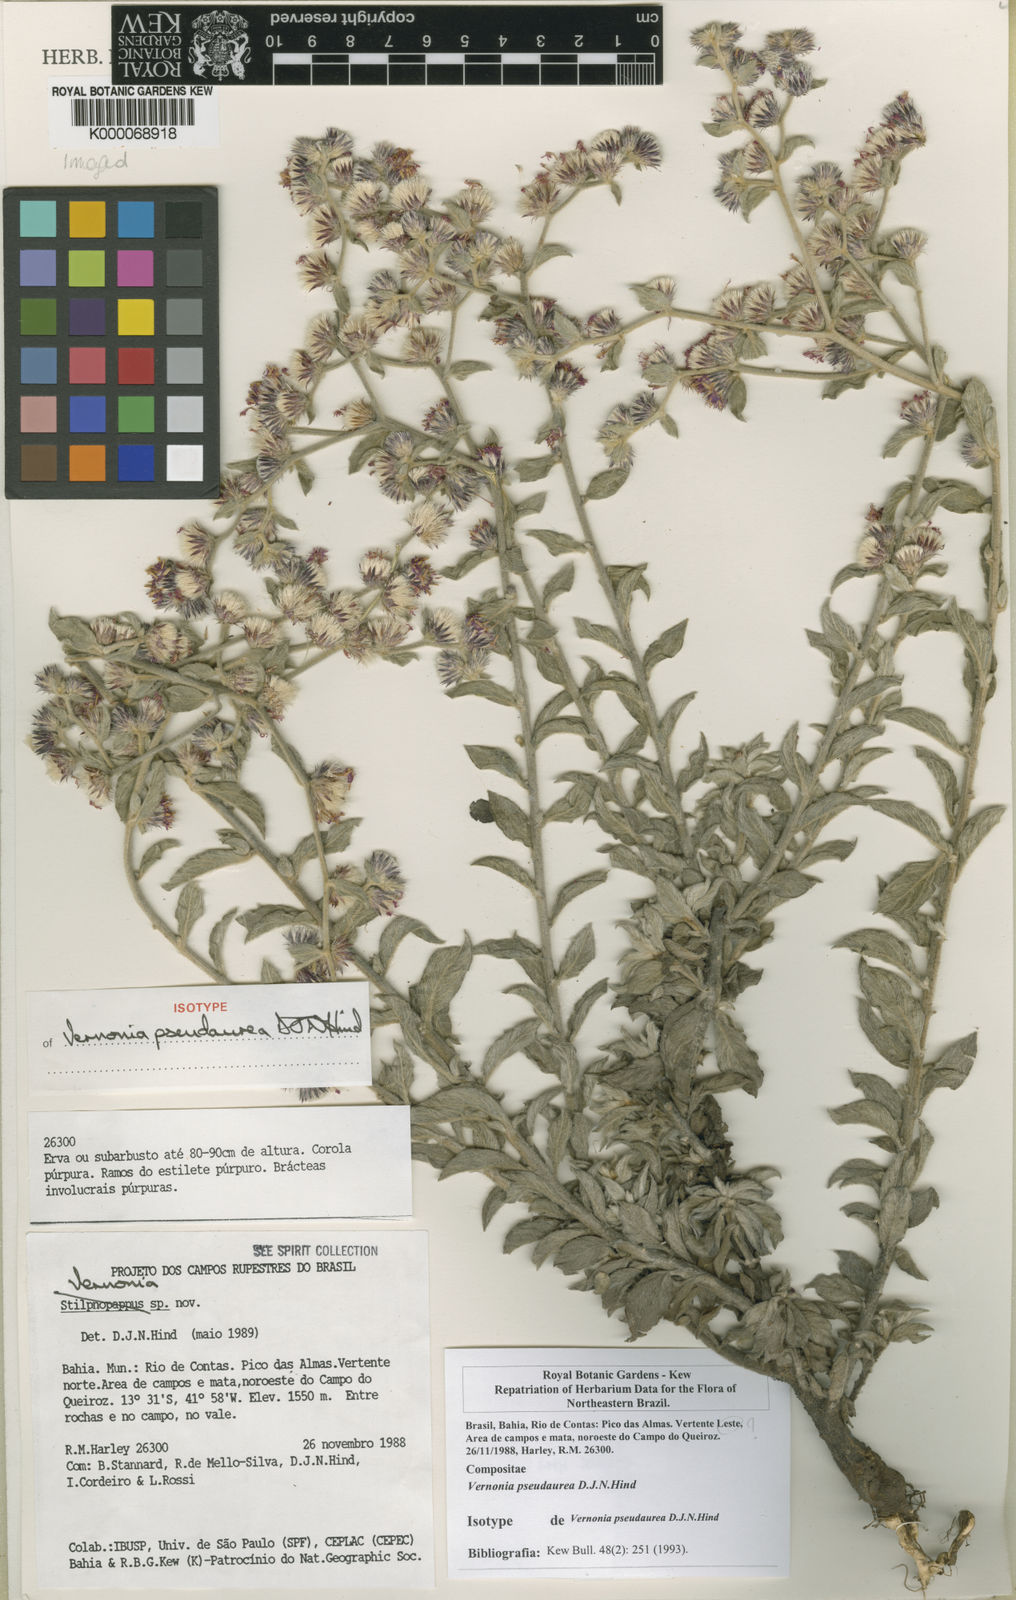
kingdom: Plantae
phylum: Tracheophyta
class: Magnoliopsida
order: Asterales
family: Asteraceae
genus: Lepidaploa
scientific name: Lepidaploa pseudaurea
